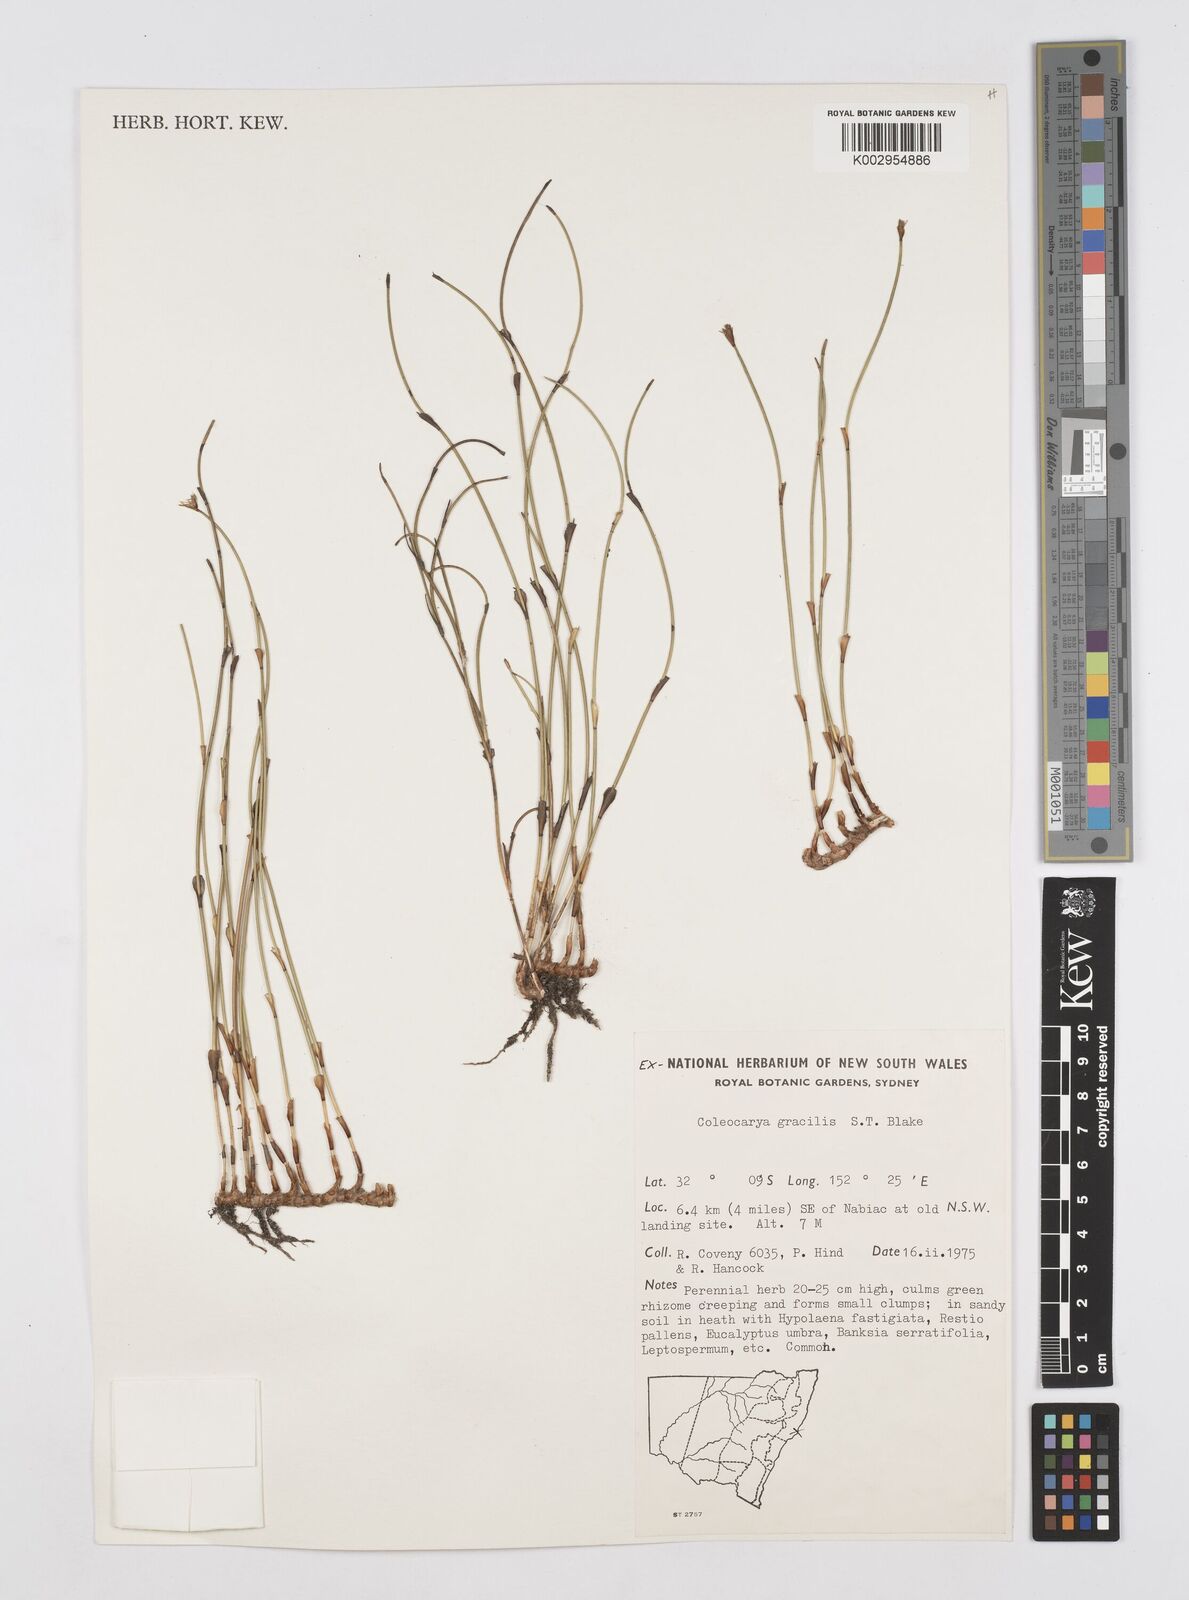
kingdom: Plantae
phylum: Tracheophyta
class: Liliopsida
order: Poales
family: Restionaceae
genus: Coleocarya
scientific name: Coleocarya gracilis
